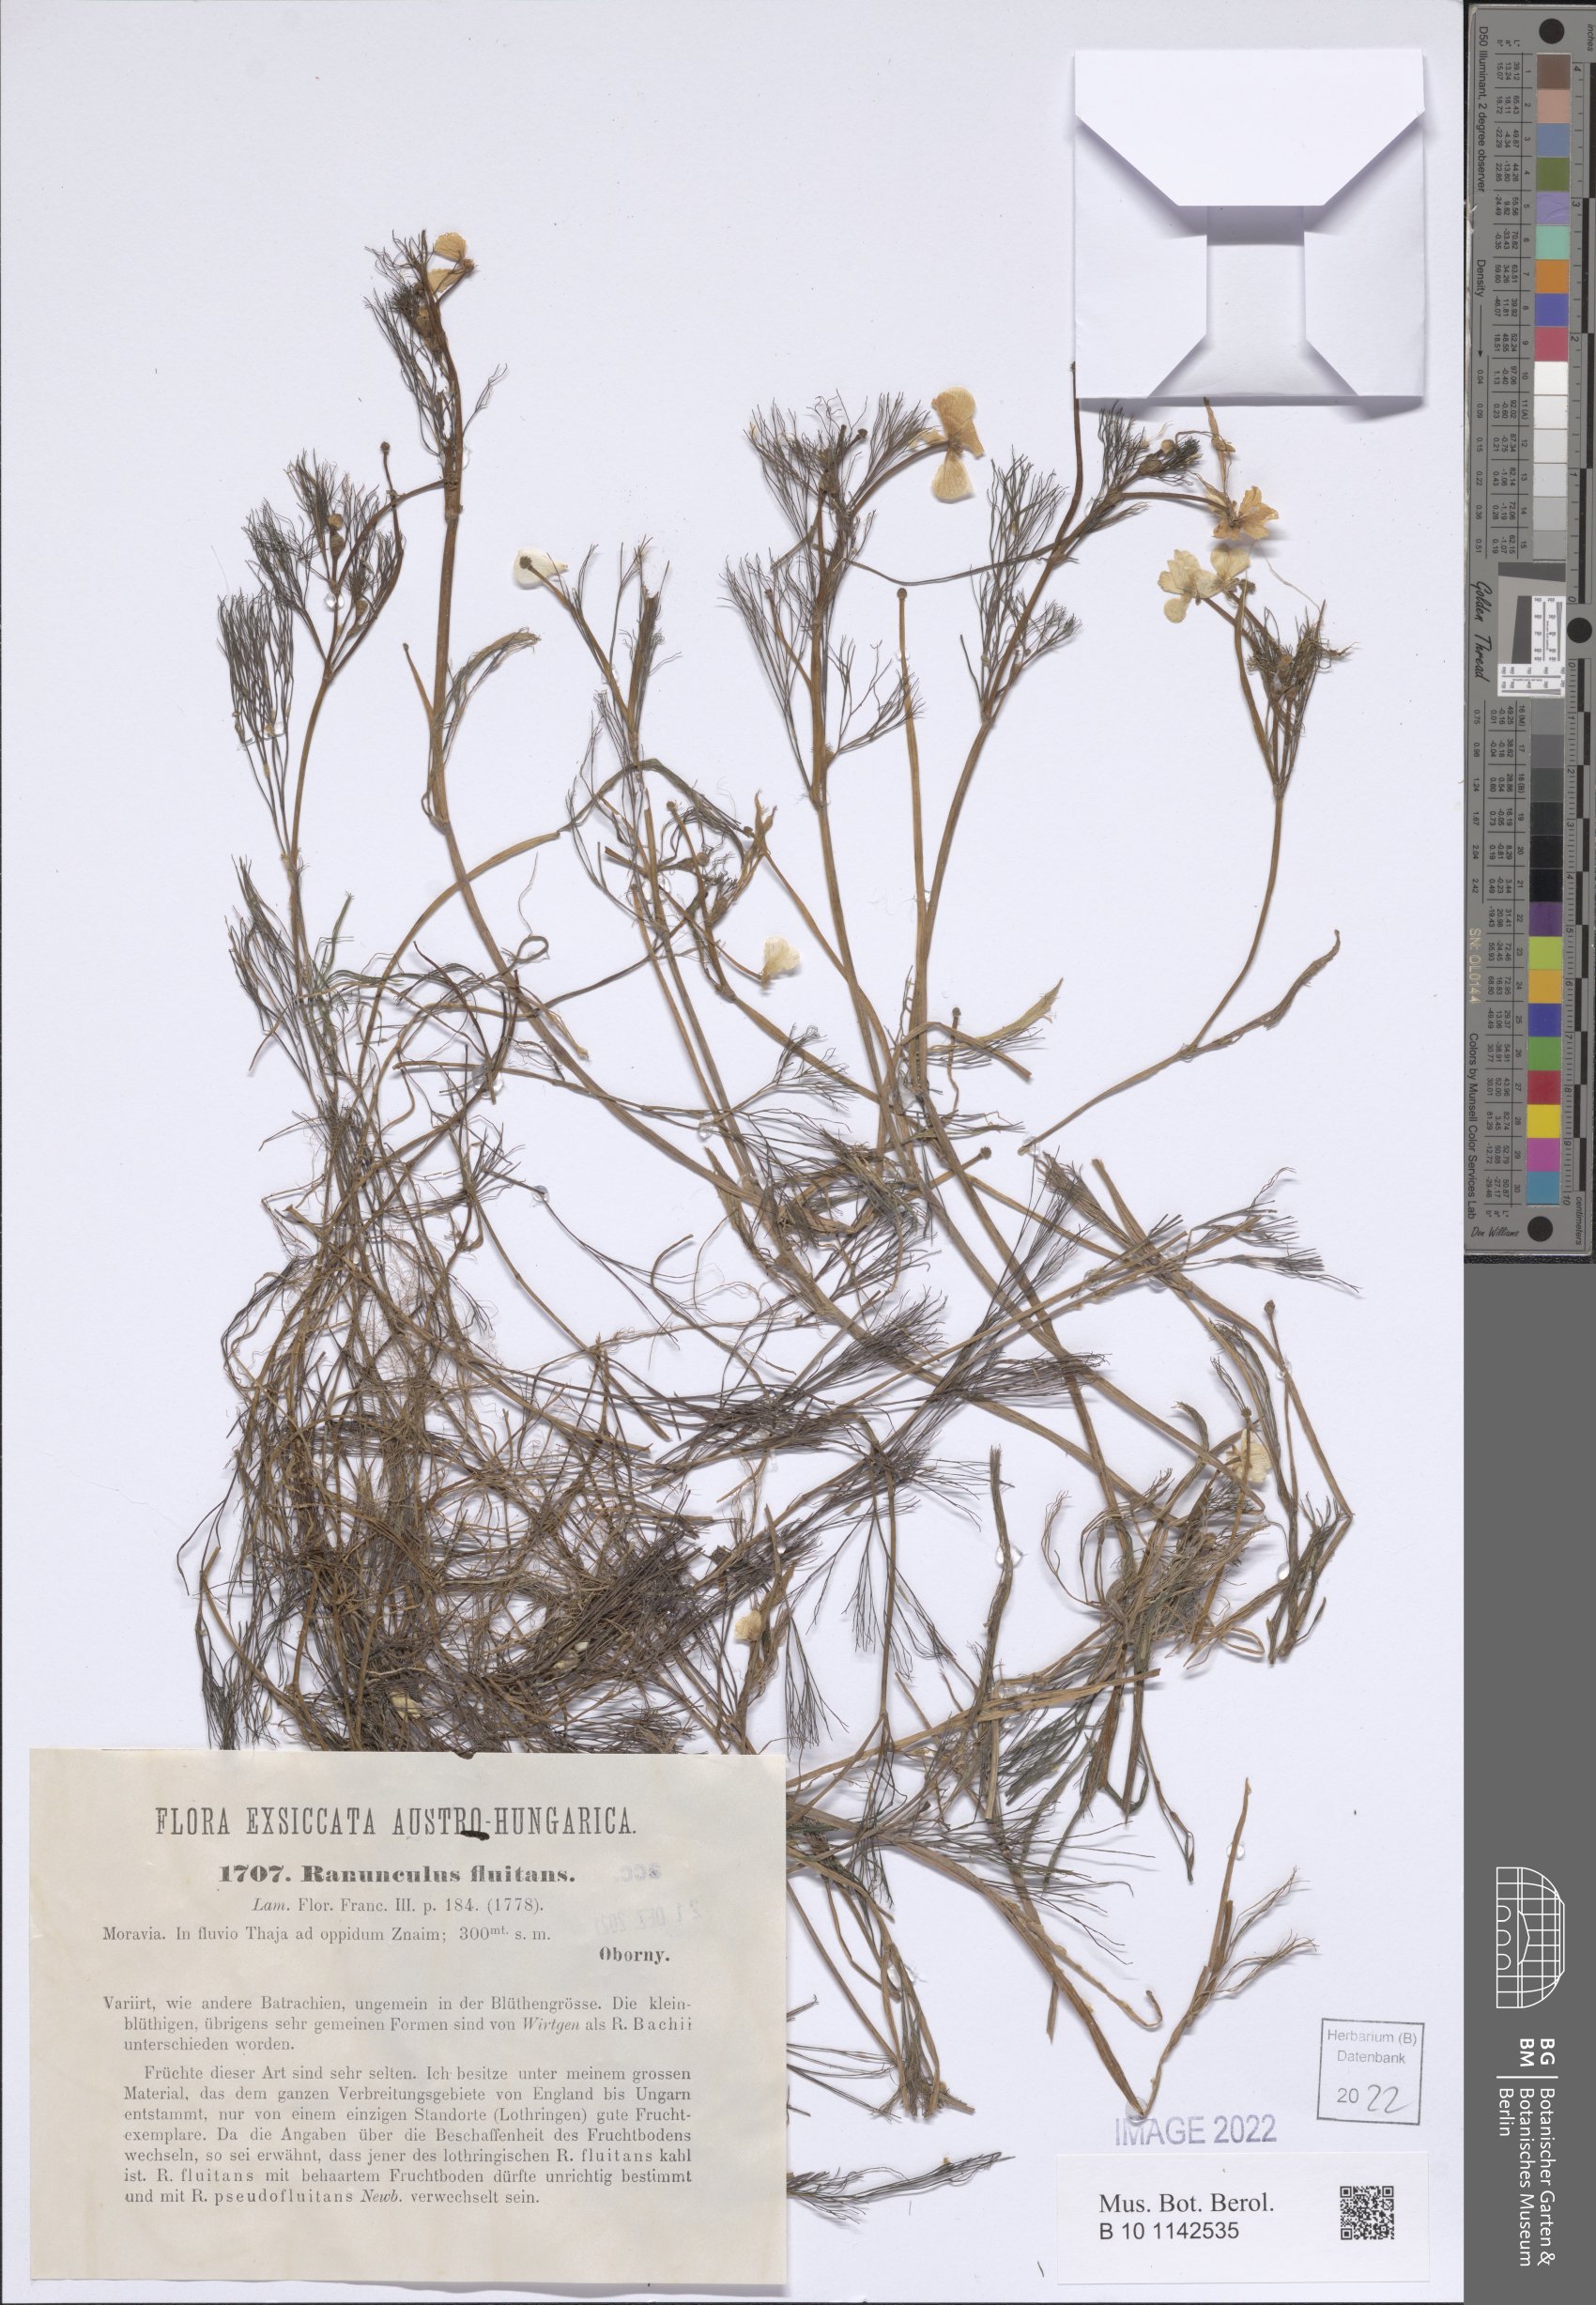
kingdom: Plantae
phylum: Tracheophyta
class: Magnoliopsida
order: Ranunculales
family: Ranunculaceae
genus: Ranunculus
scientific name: Ranunculus fluitans
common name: River water-crowfoot
